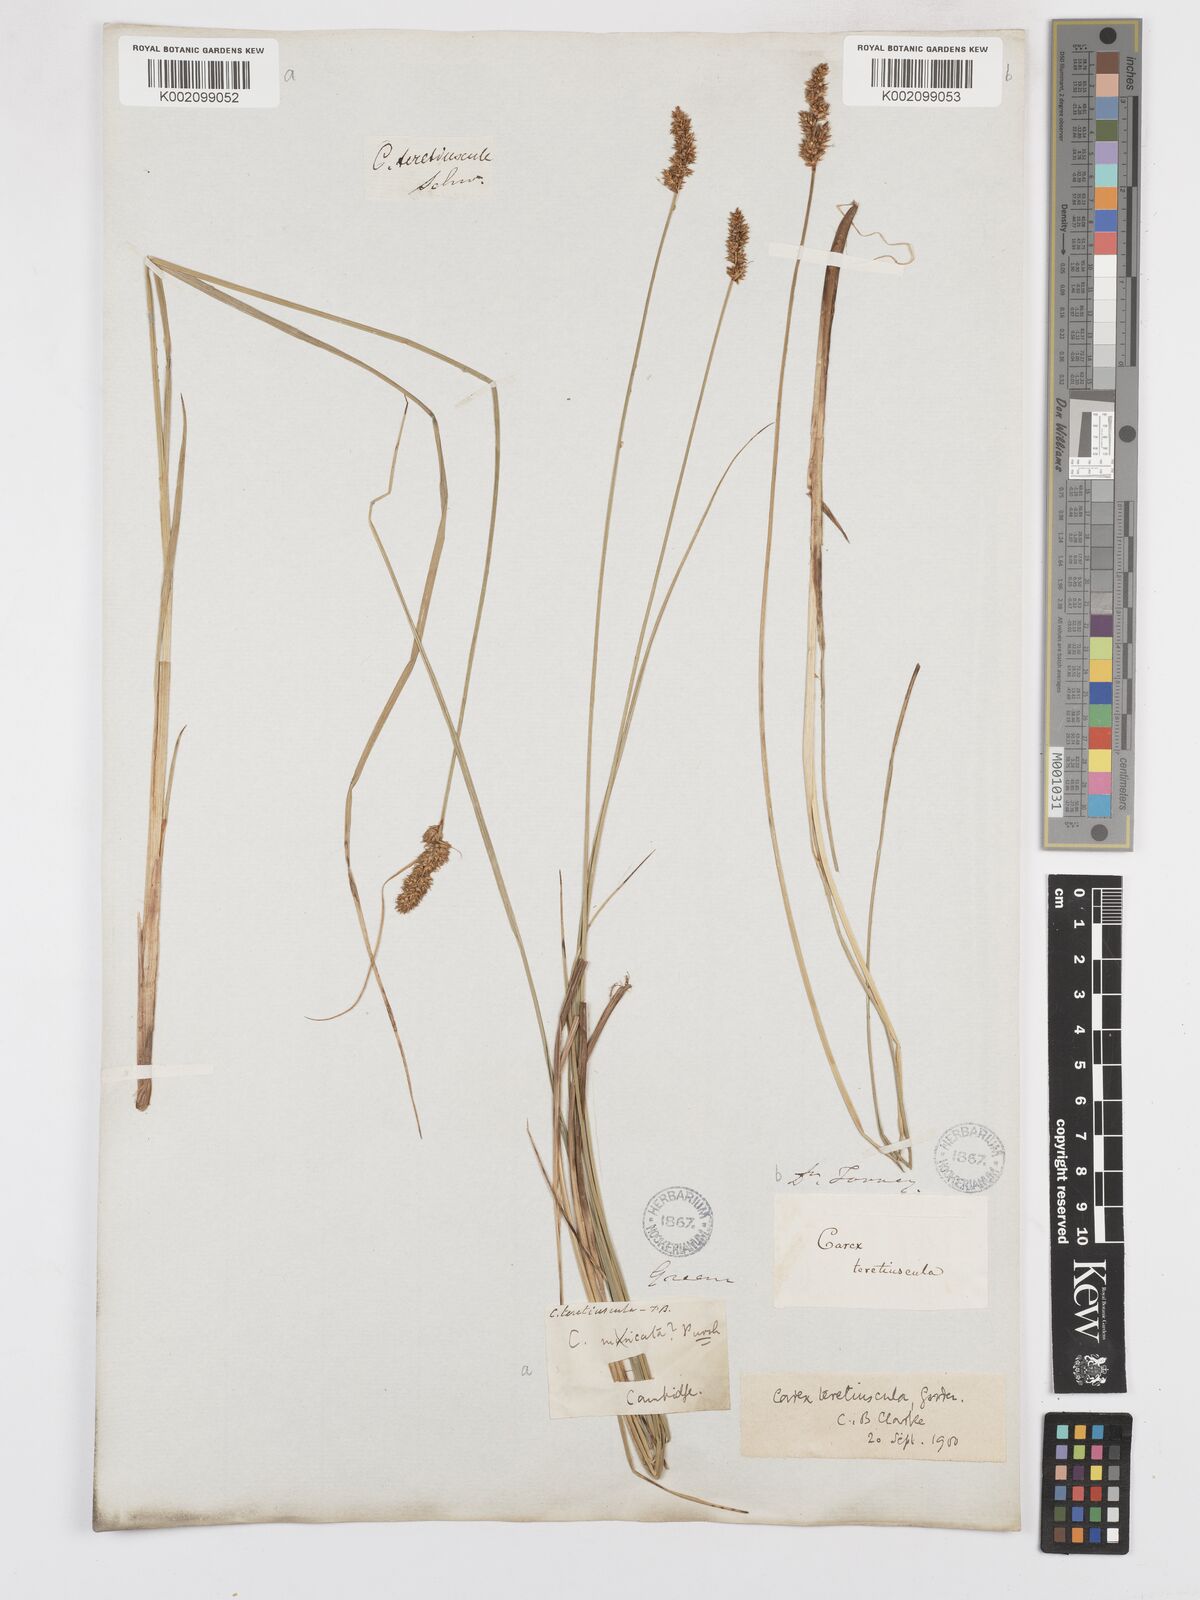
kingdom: Plantae
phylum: Tracheophyta
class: Liliopsida
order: Poales
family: Cyperaceae
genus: Carex
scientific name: Carex diandra
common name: Lesser tussock-sedge
